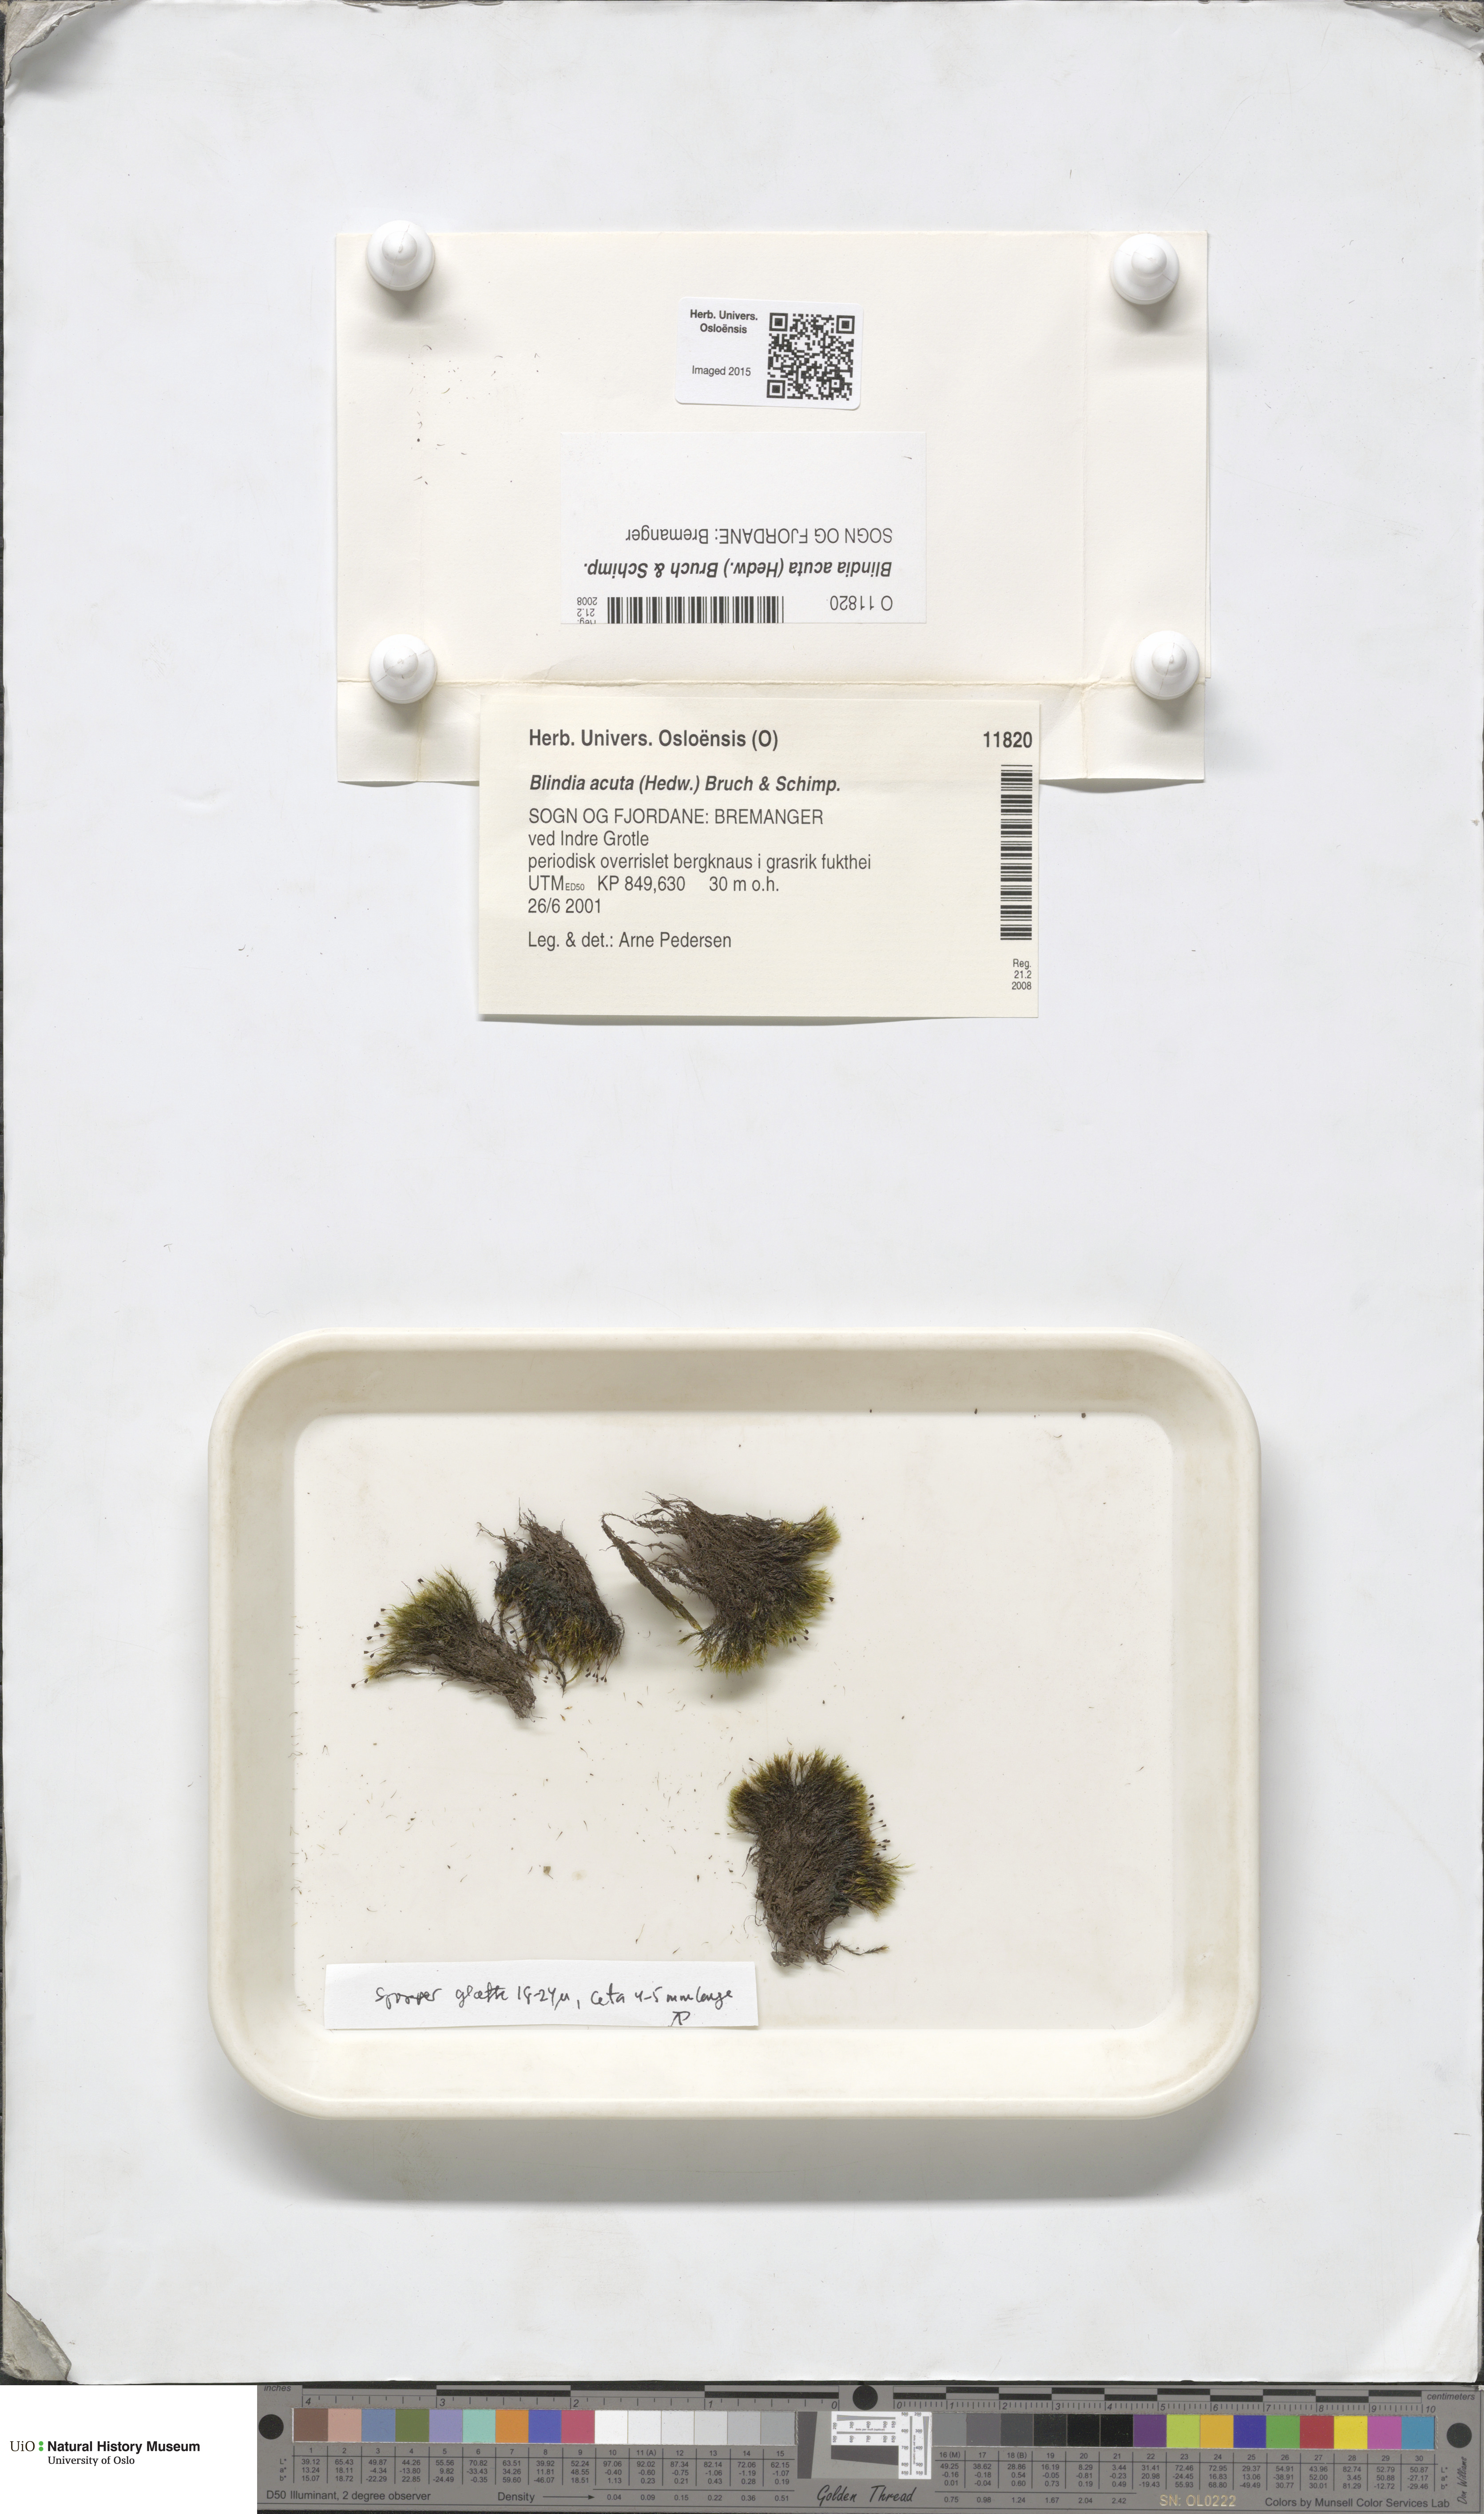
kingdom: Plantae
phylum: Bryophyta
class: Bryopsida
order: Grimmiales
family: Seligeriaceae
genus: Blindia
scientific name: Blindia acuta
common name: Sharp-leaved blind's moss
